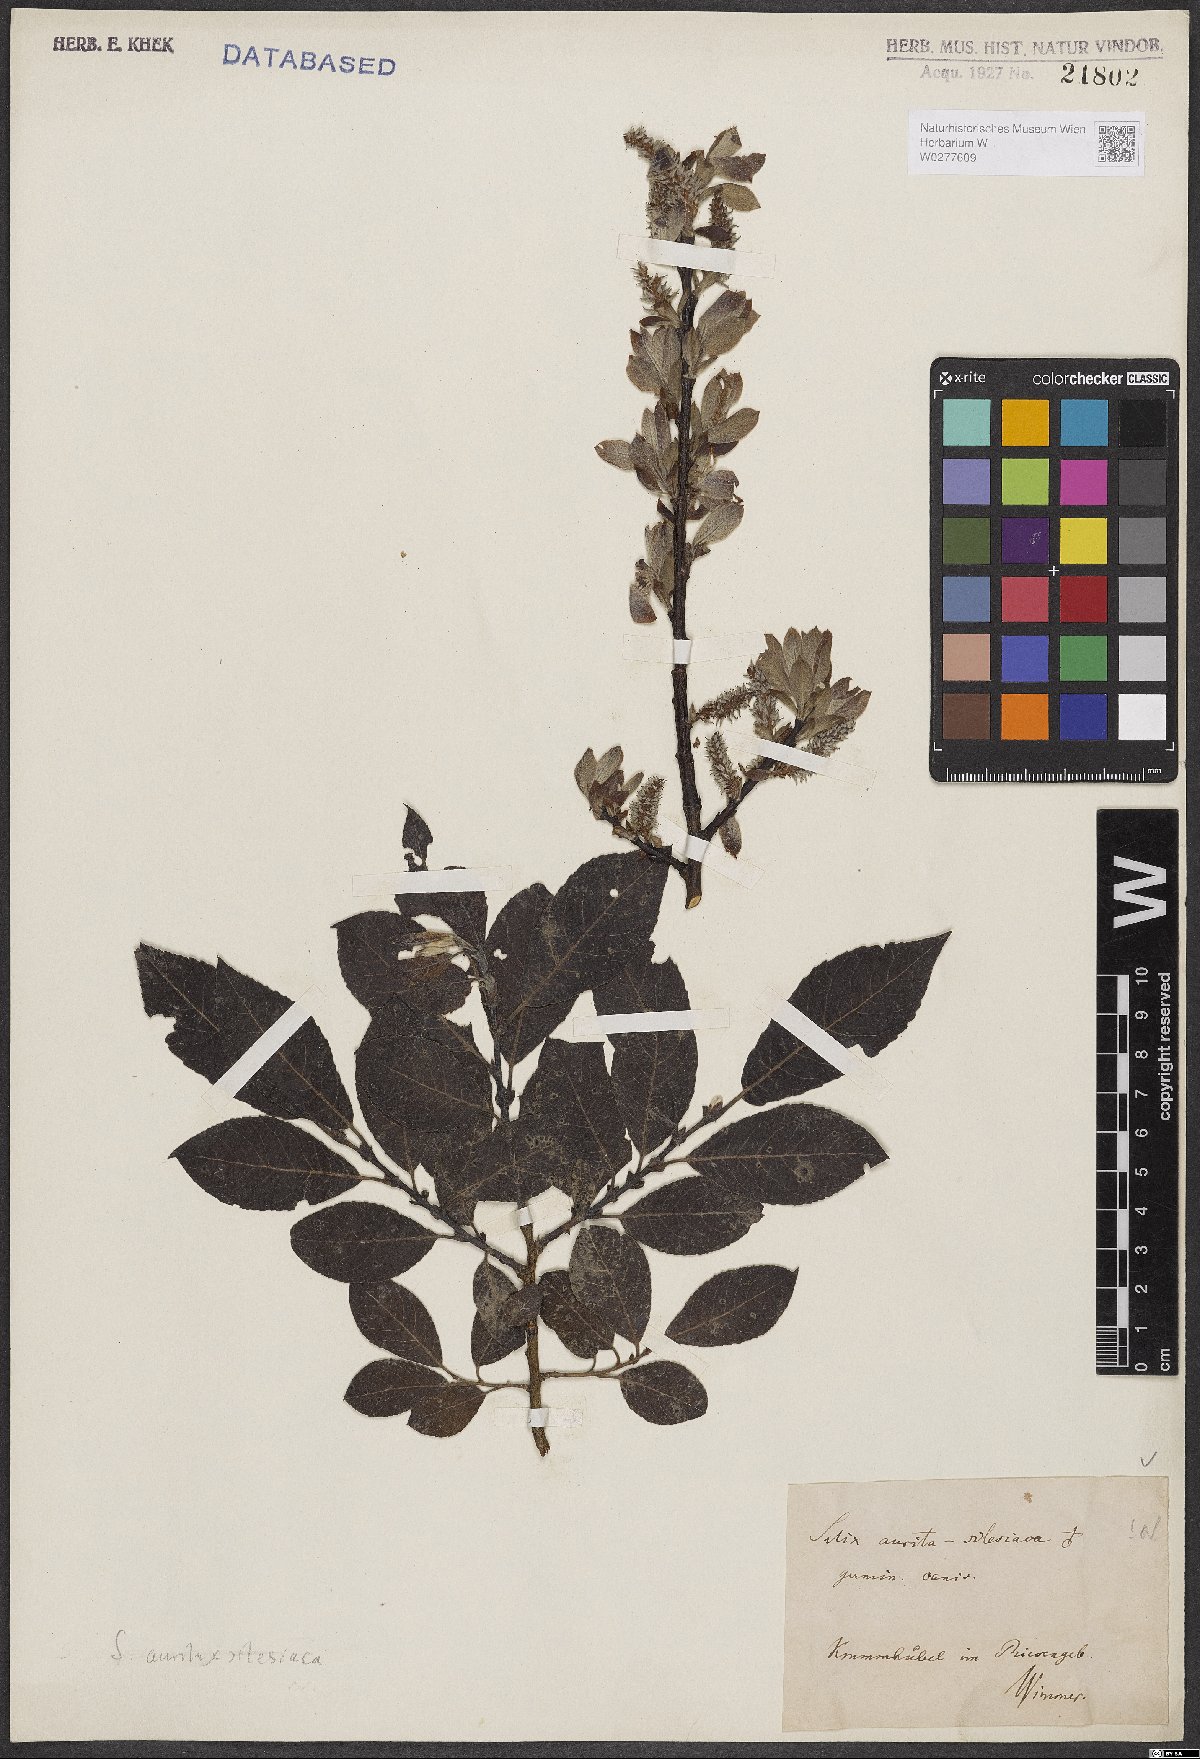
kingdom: Plantae
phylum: Tracheophyta
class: Magnoliopsida
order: Malpighiales
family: Salicaceae
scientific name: Salicaceae
